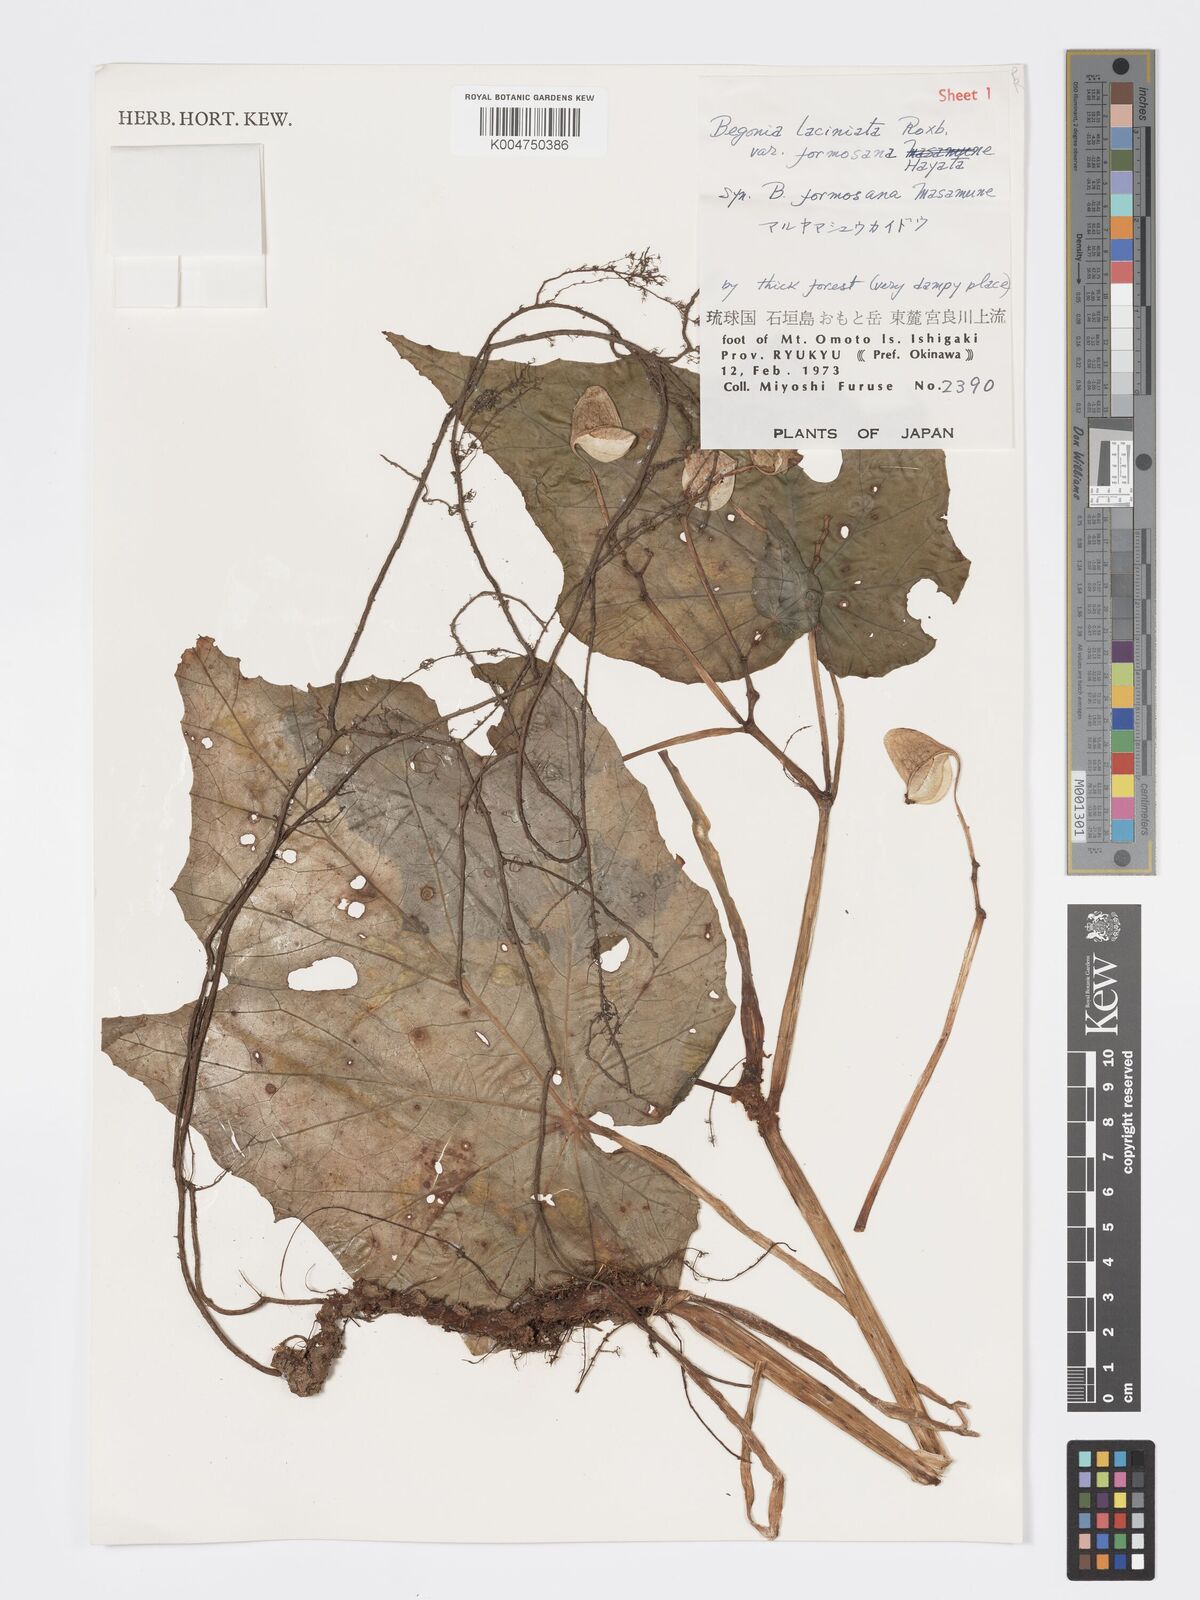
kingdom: Plantae
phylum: Tracheophyta
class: Magnoliopsida
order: Cucurbitales
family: Begoniaceae
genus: Begonia
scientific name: Begonia formosana
